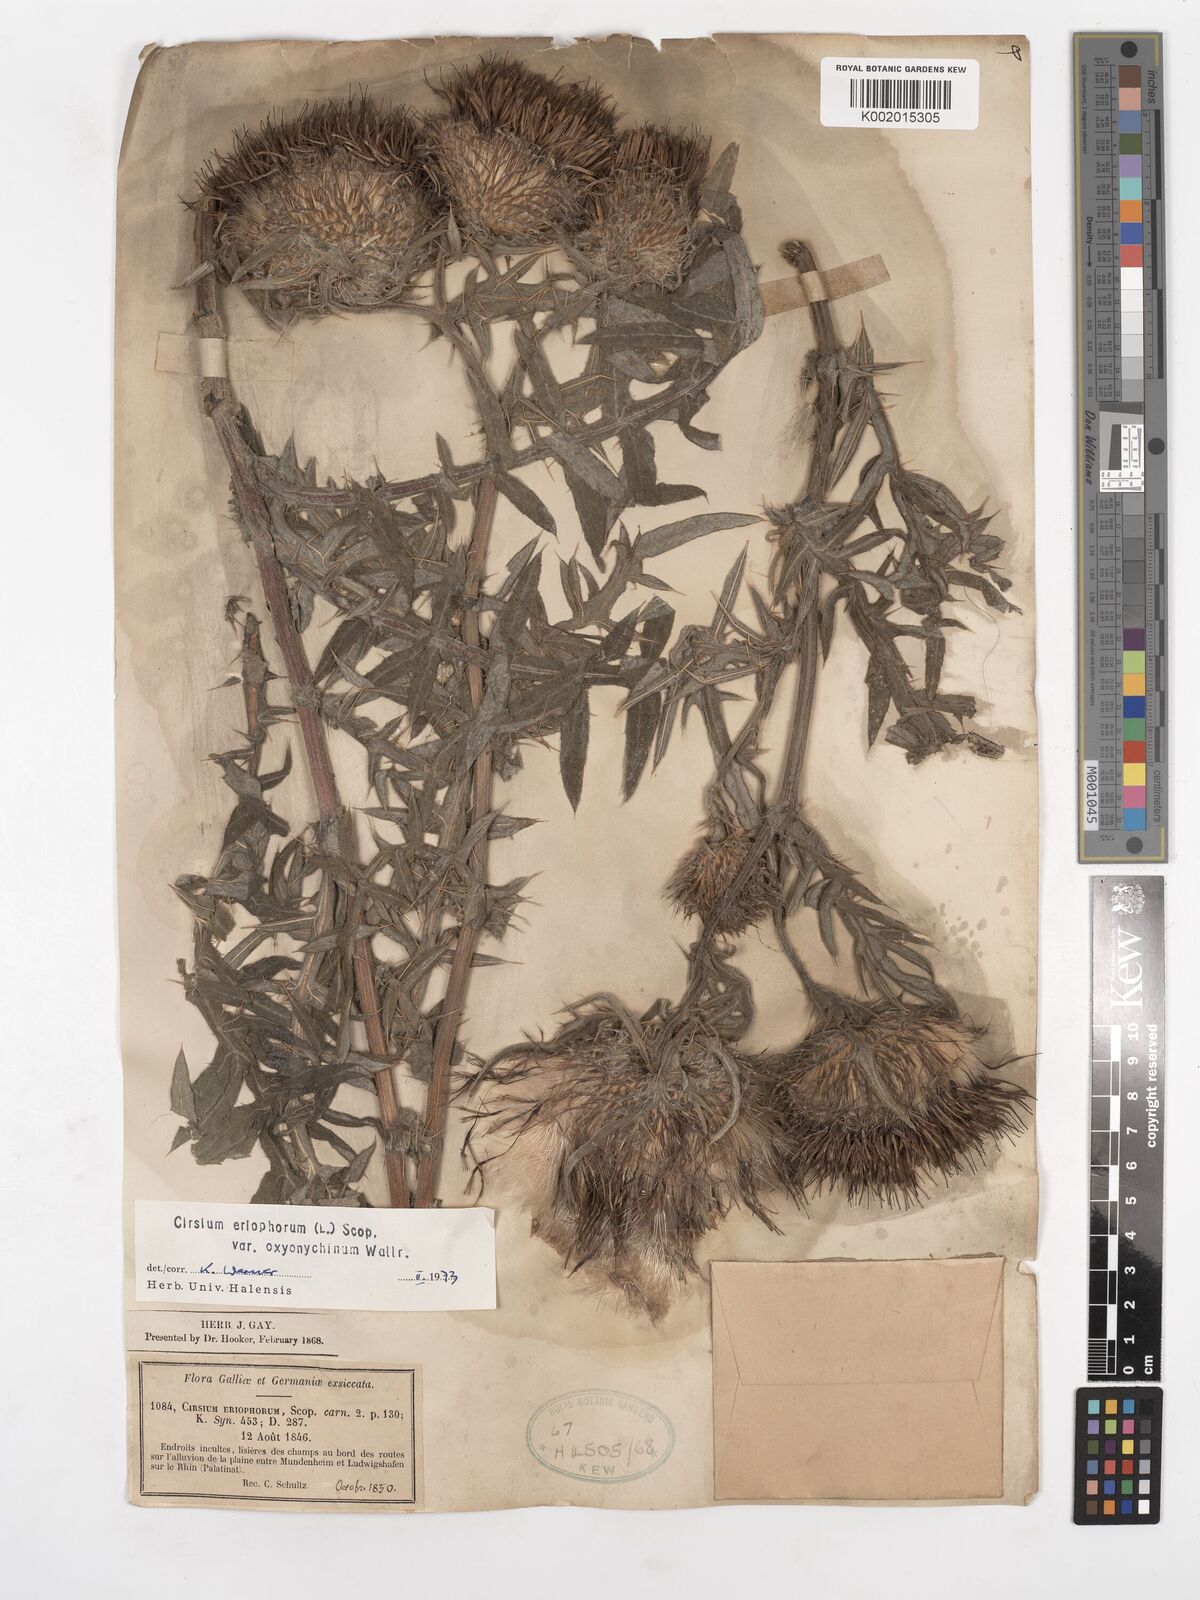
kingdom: Plantae
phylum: Tracheophyta
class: Magnoliopsida
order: Asterales
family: Asteraceae
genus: Lophiolepis
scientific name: Lophiolepis eriophora
